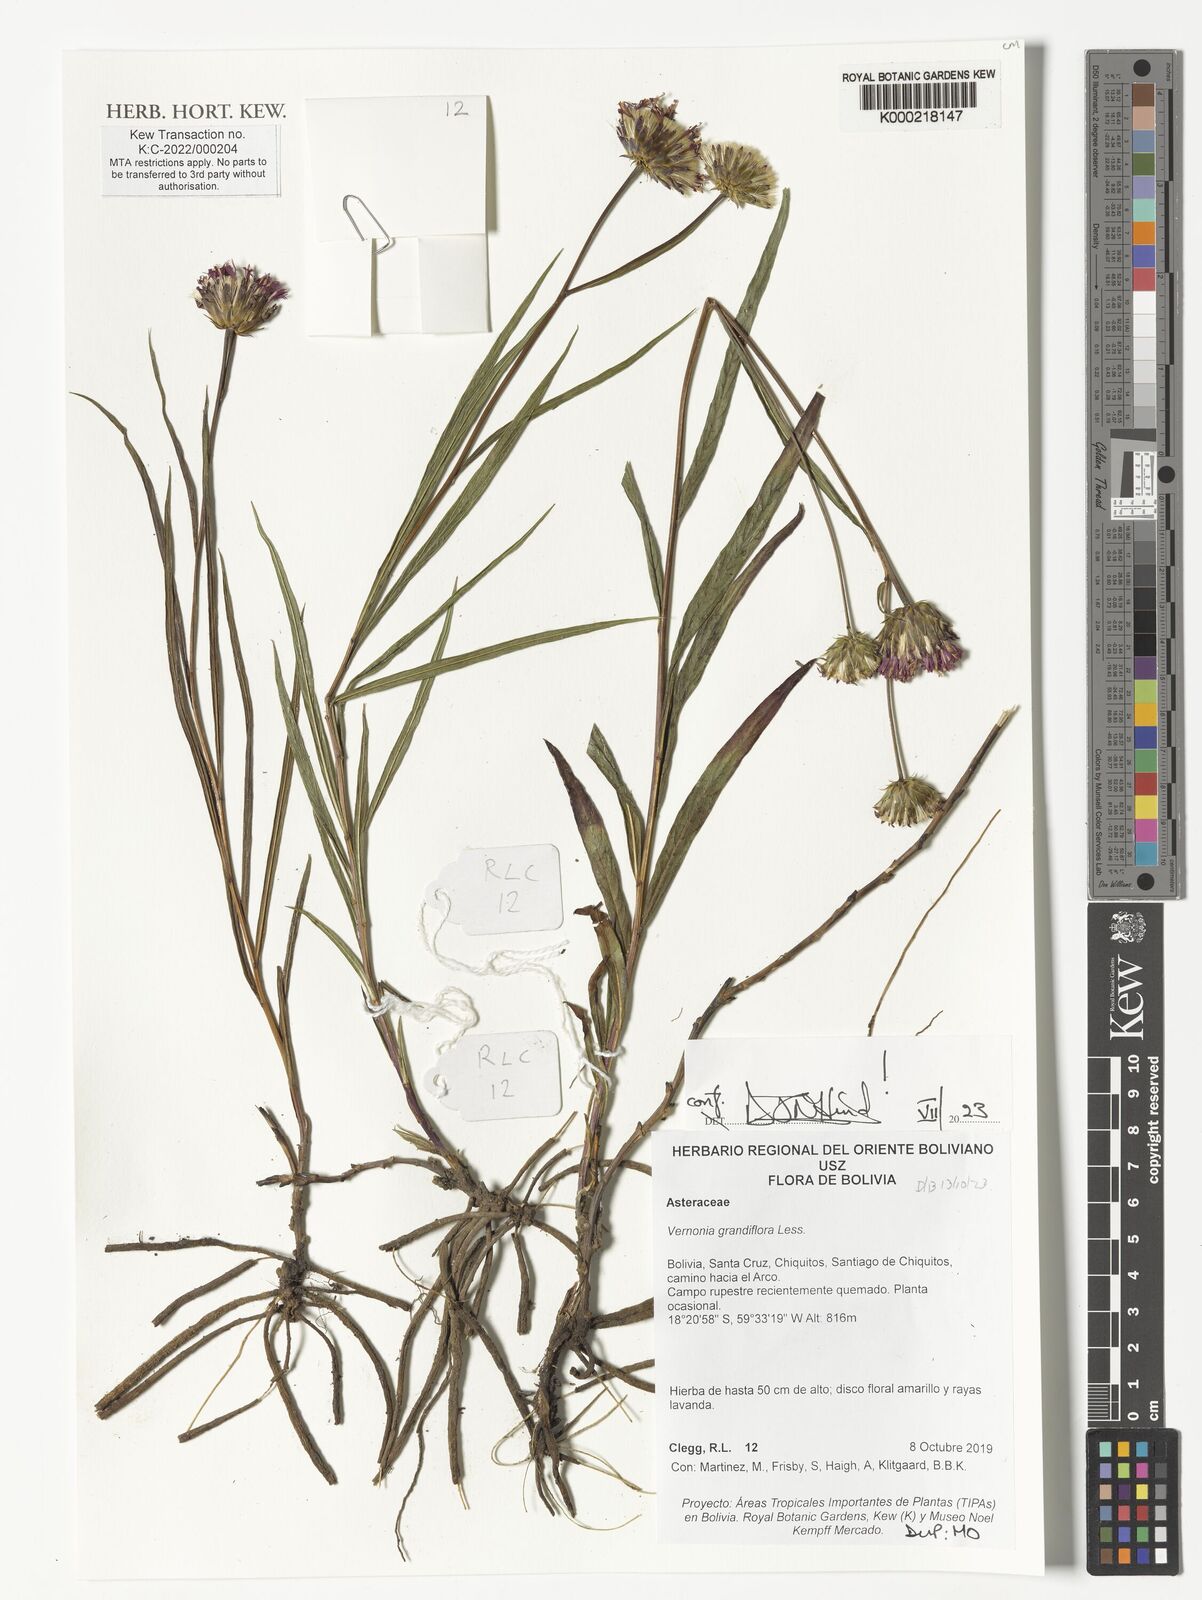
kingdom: Plantae
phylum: Tracheophyta
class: Magnoliopsida
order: Asterales
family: Asteraceae
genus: Lessingianthus
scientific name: Lessingianthus grandiflorus
